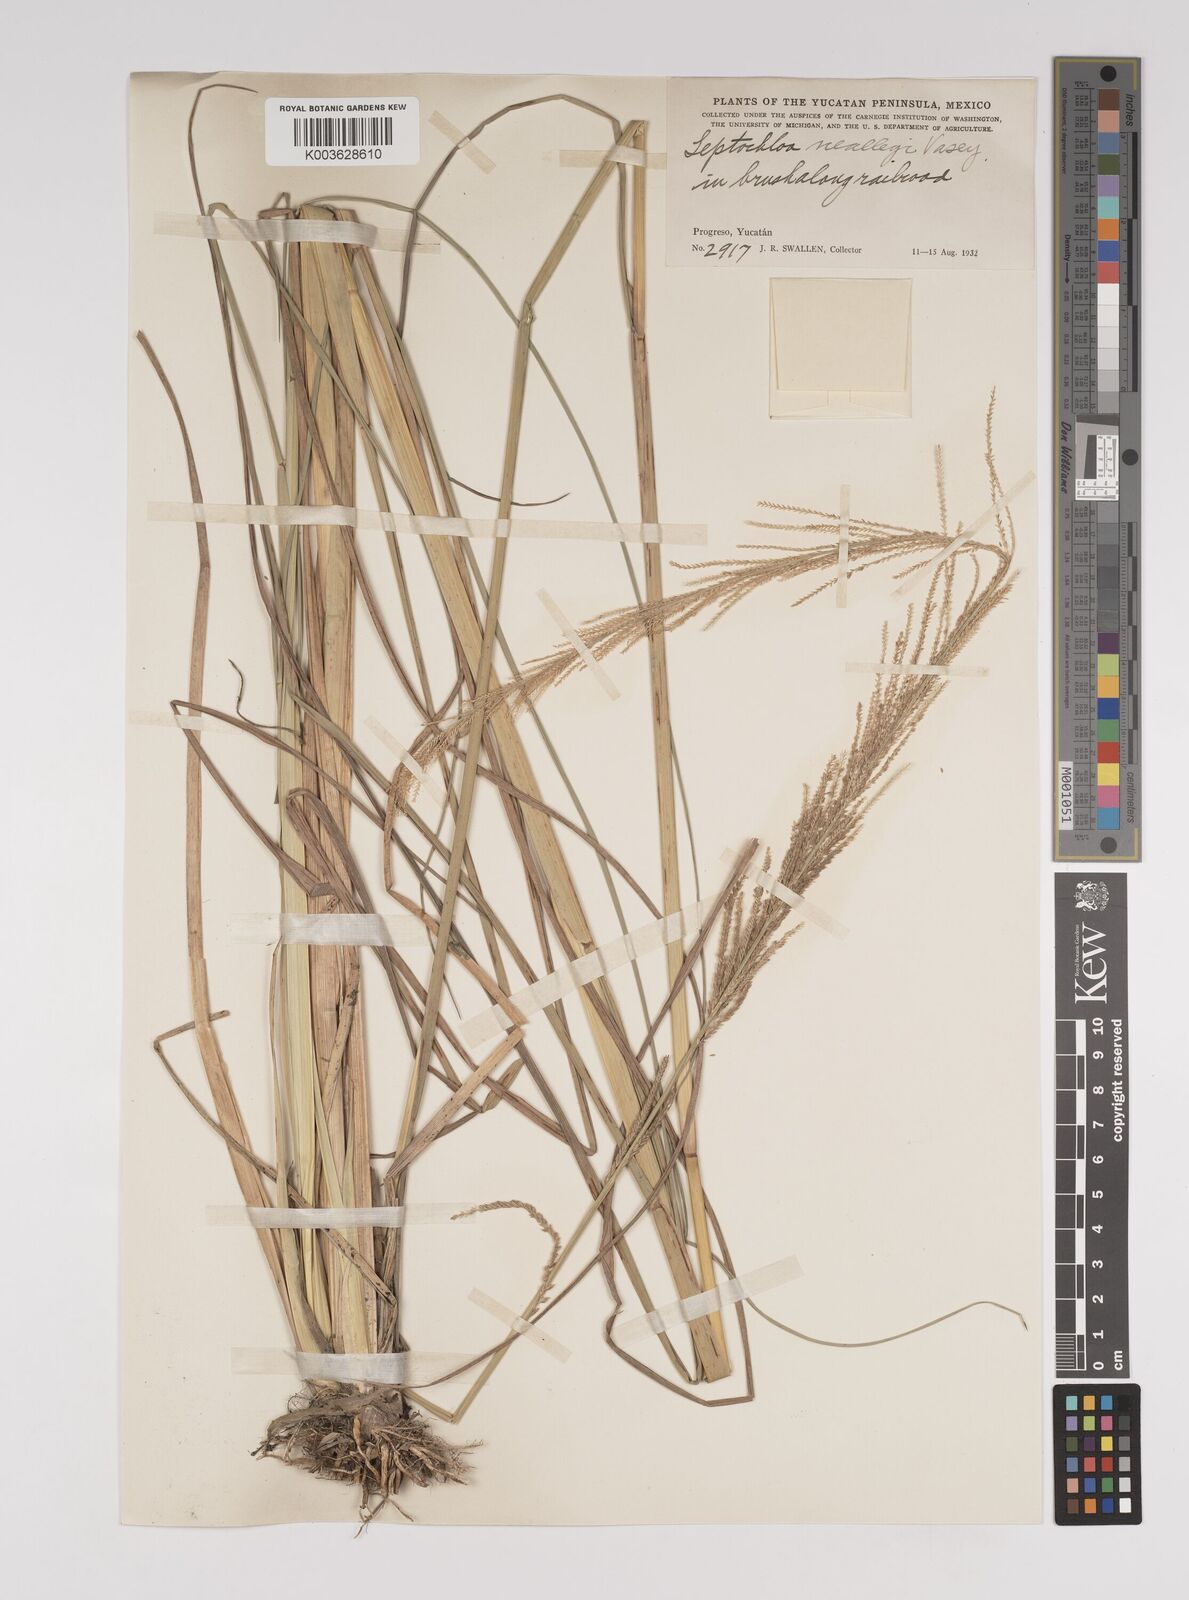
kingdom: Plantae
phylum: Tracheophyta
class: Liliopsida
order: Poales
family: Poaceae
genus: Leptochloa
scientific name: Leptochloa nealleyi
